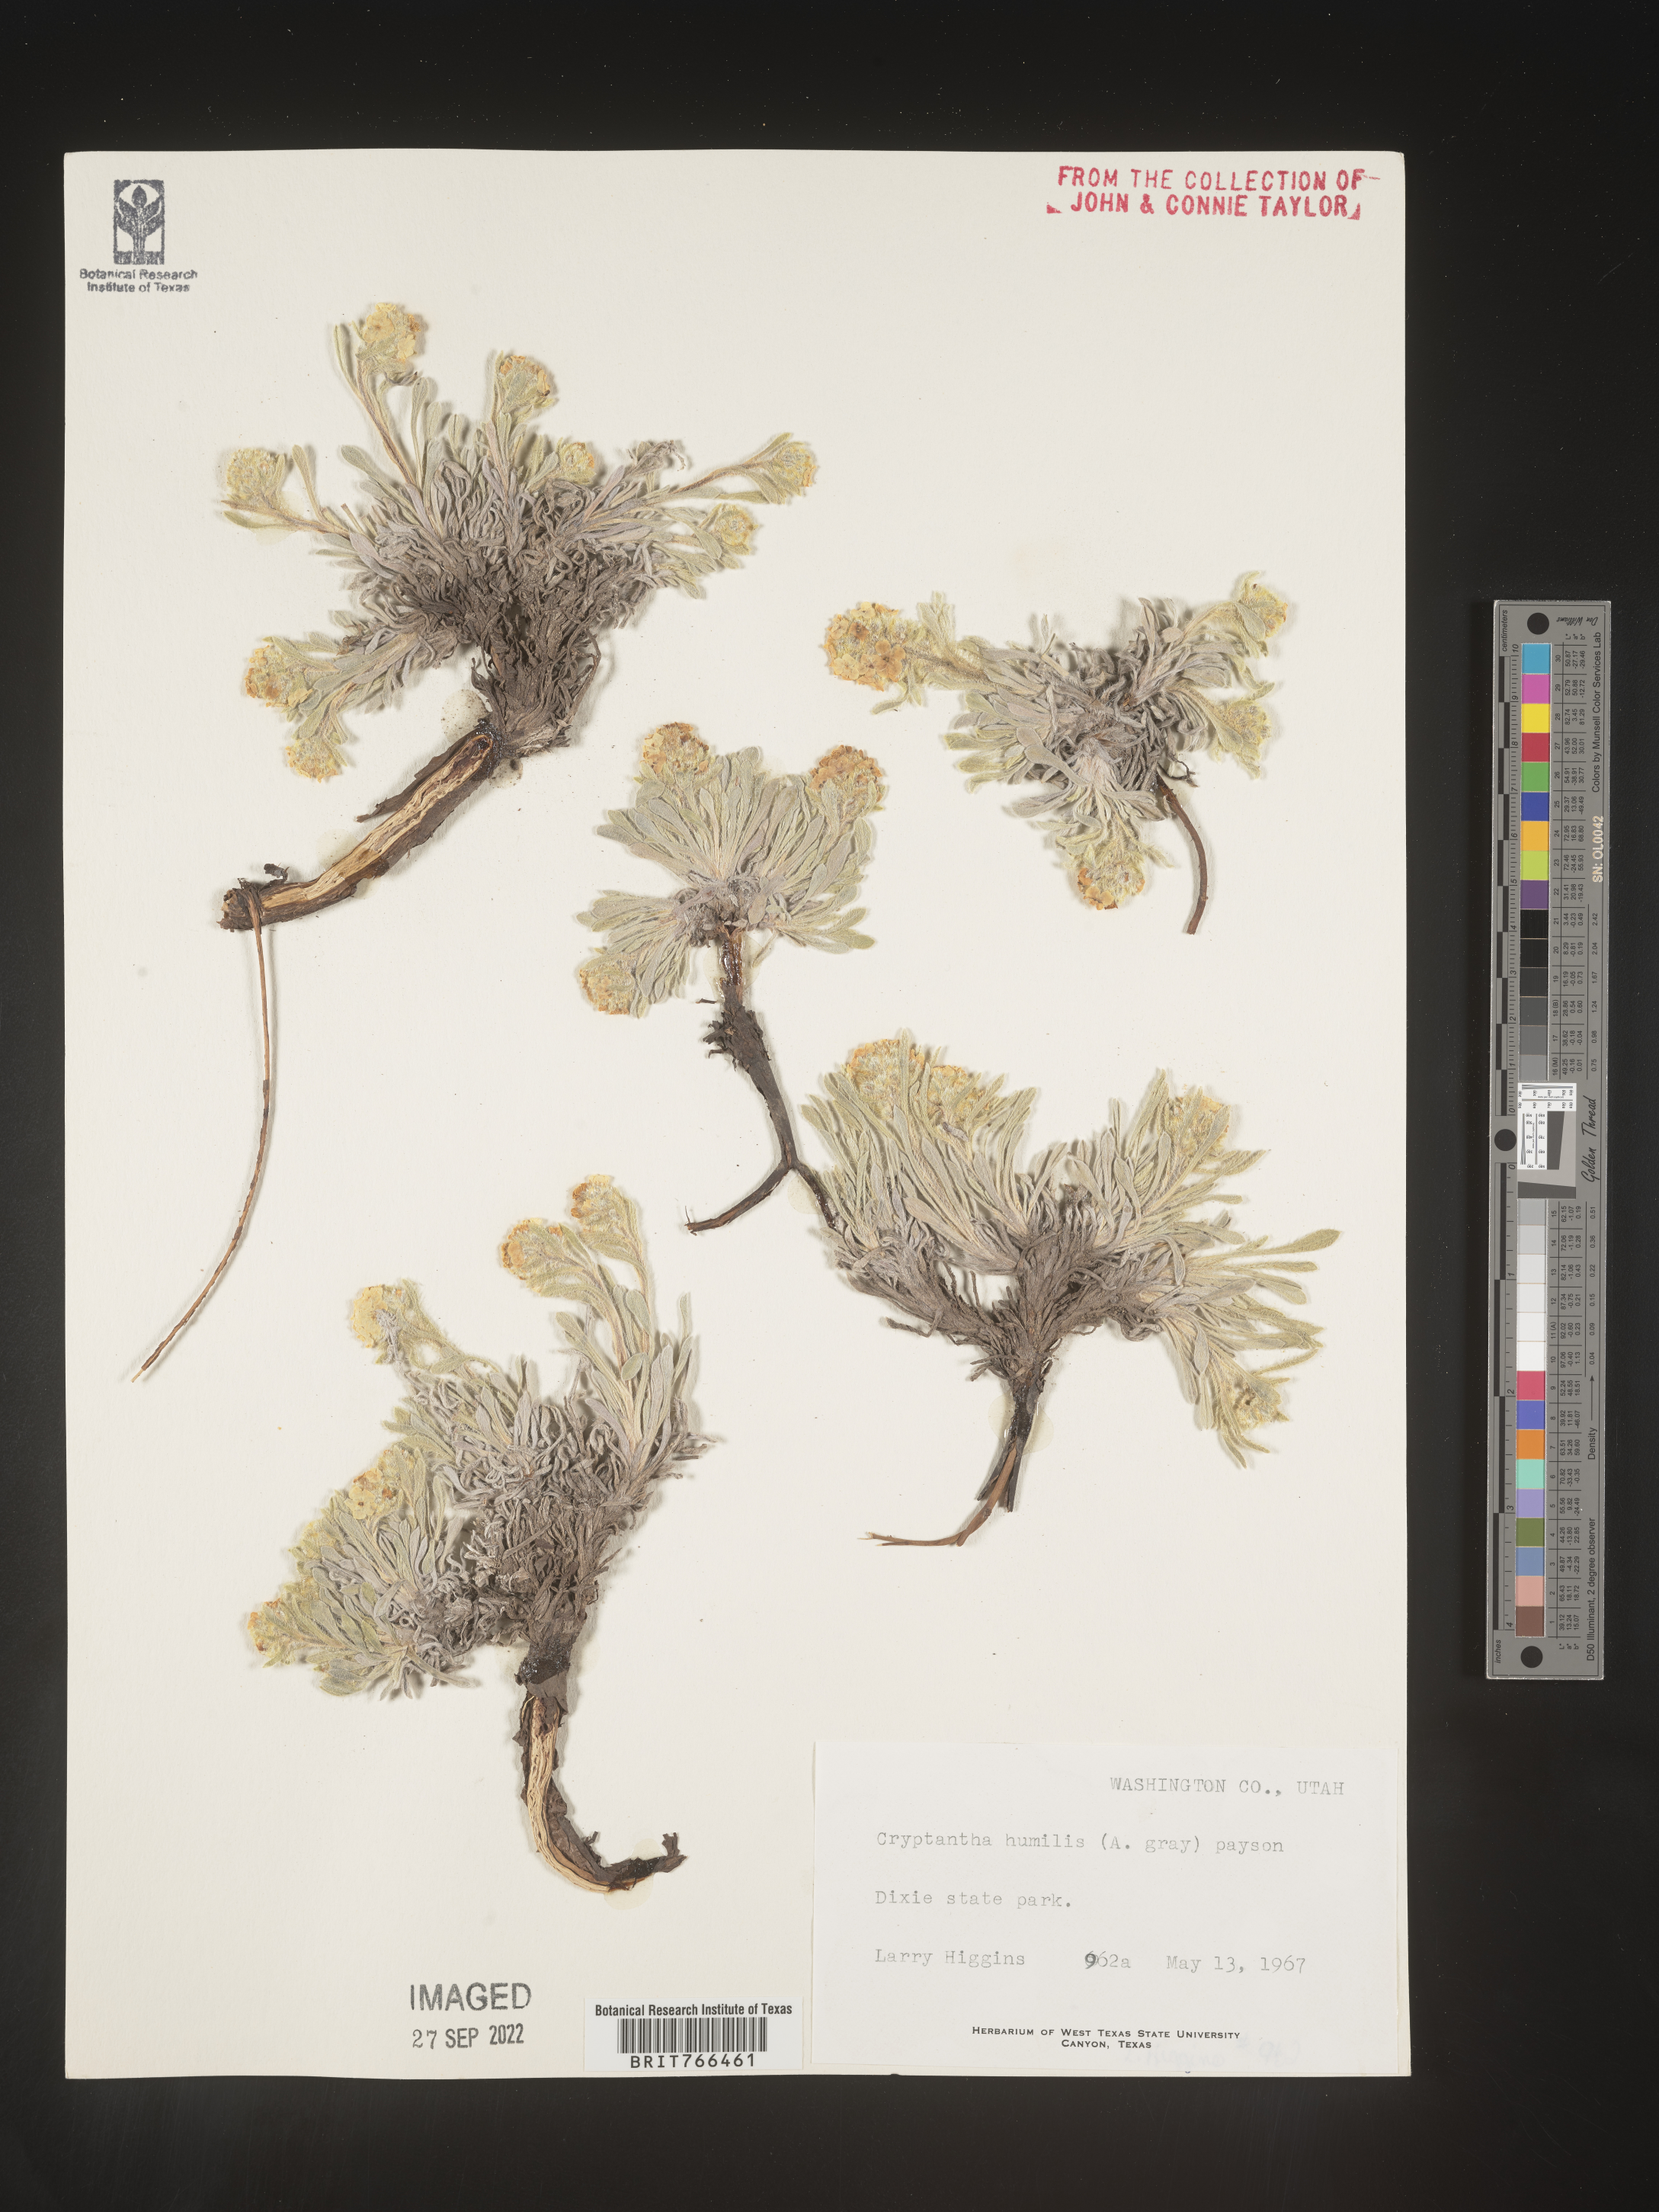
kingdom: Plantae
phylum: Tracheophyta
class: Magnoliopsida
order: Boraginales
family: Boraginaceae
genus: Cryptantha
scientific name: Cryptantha
